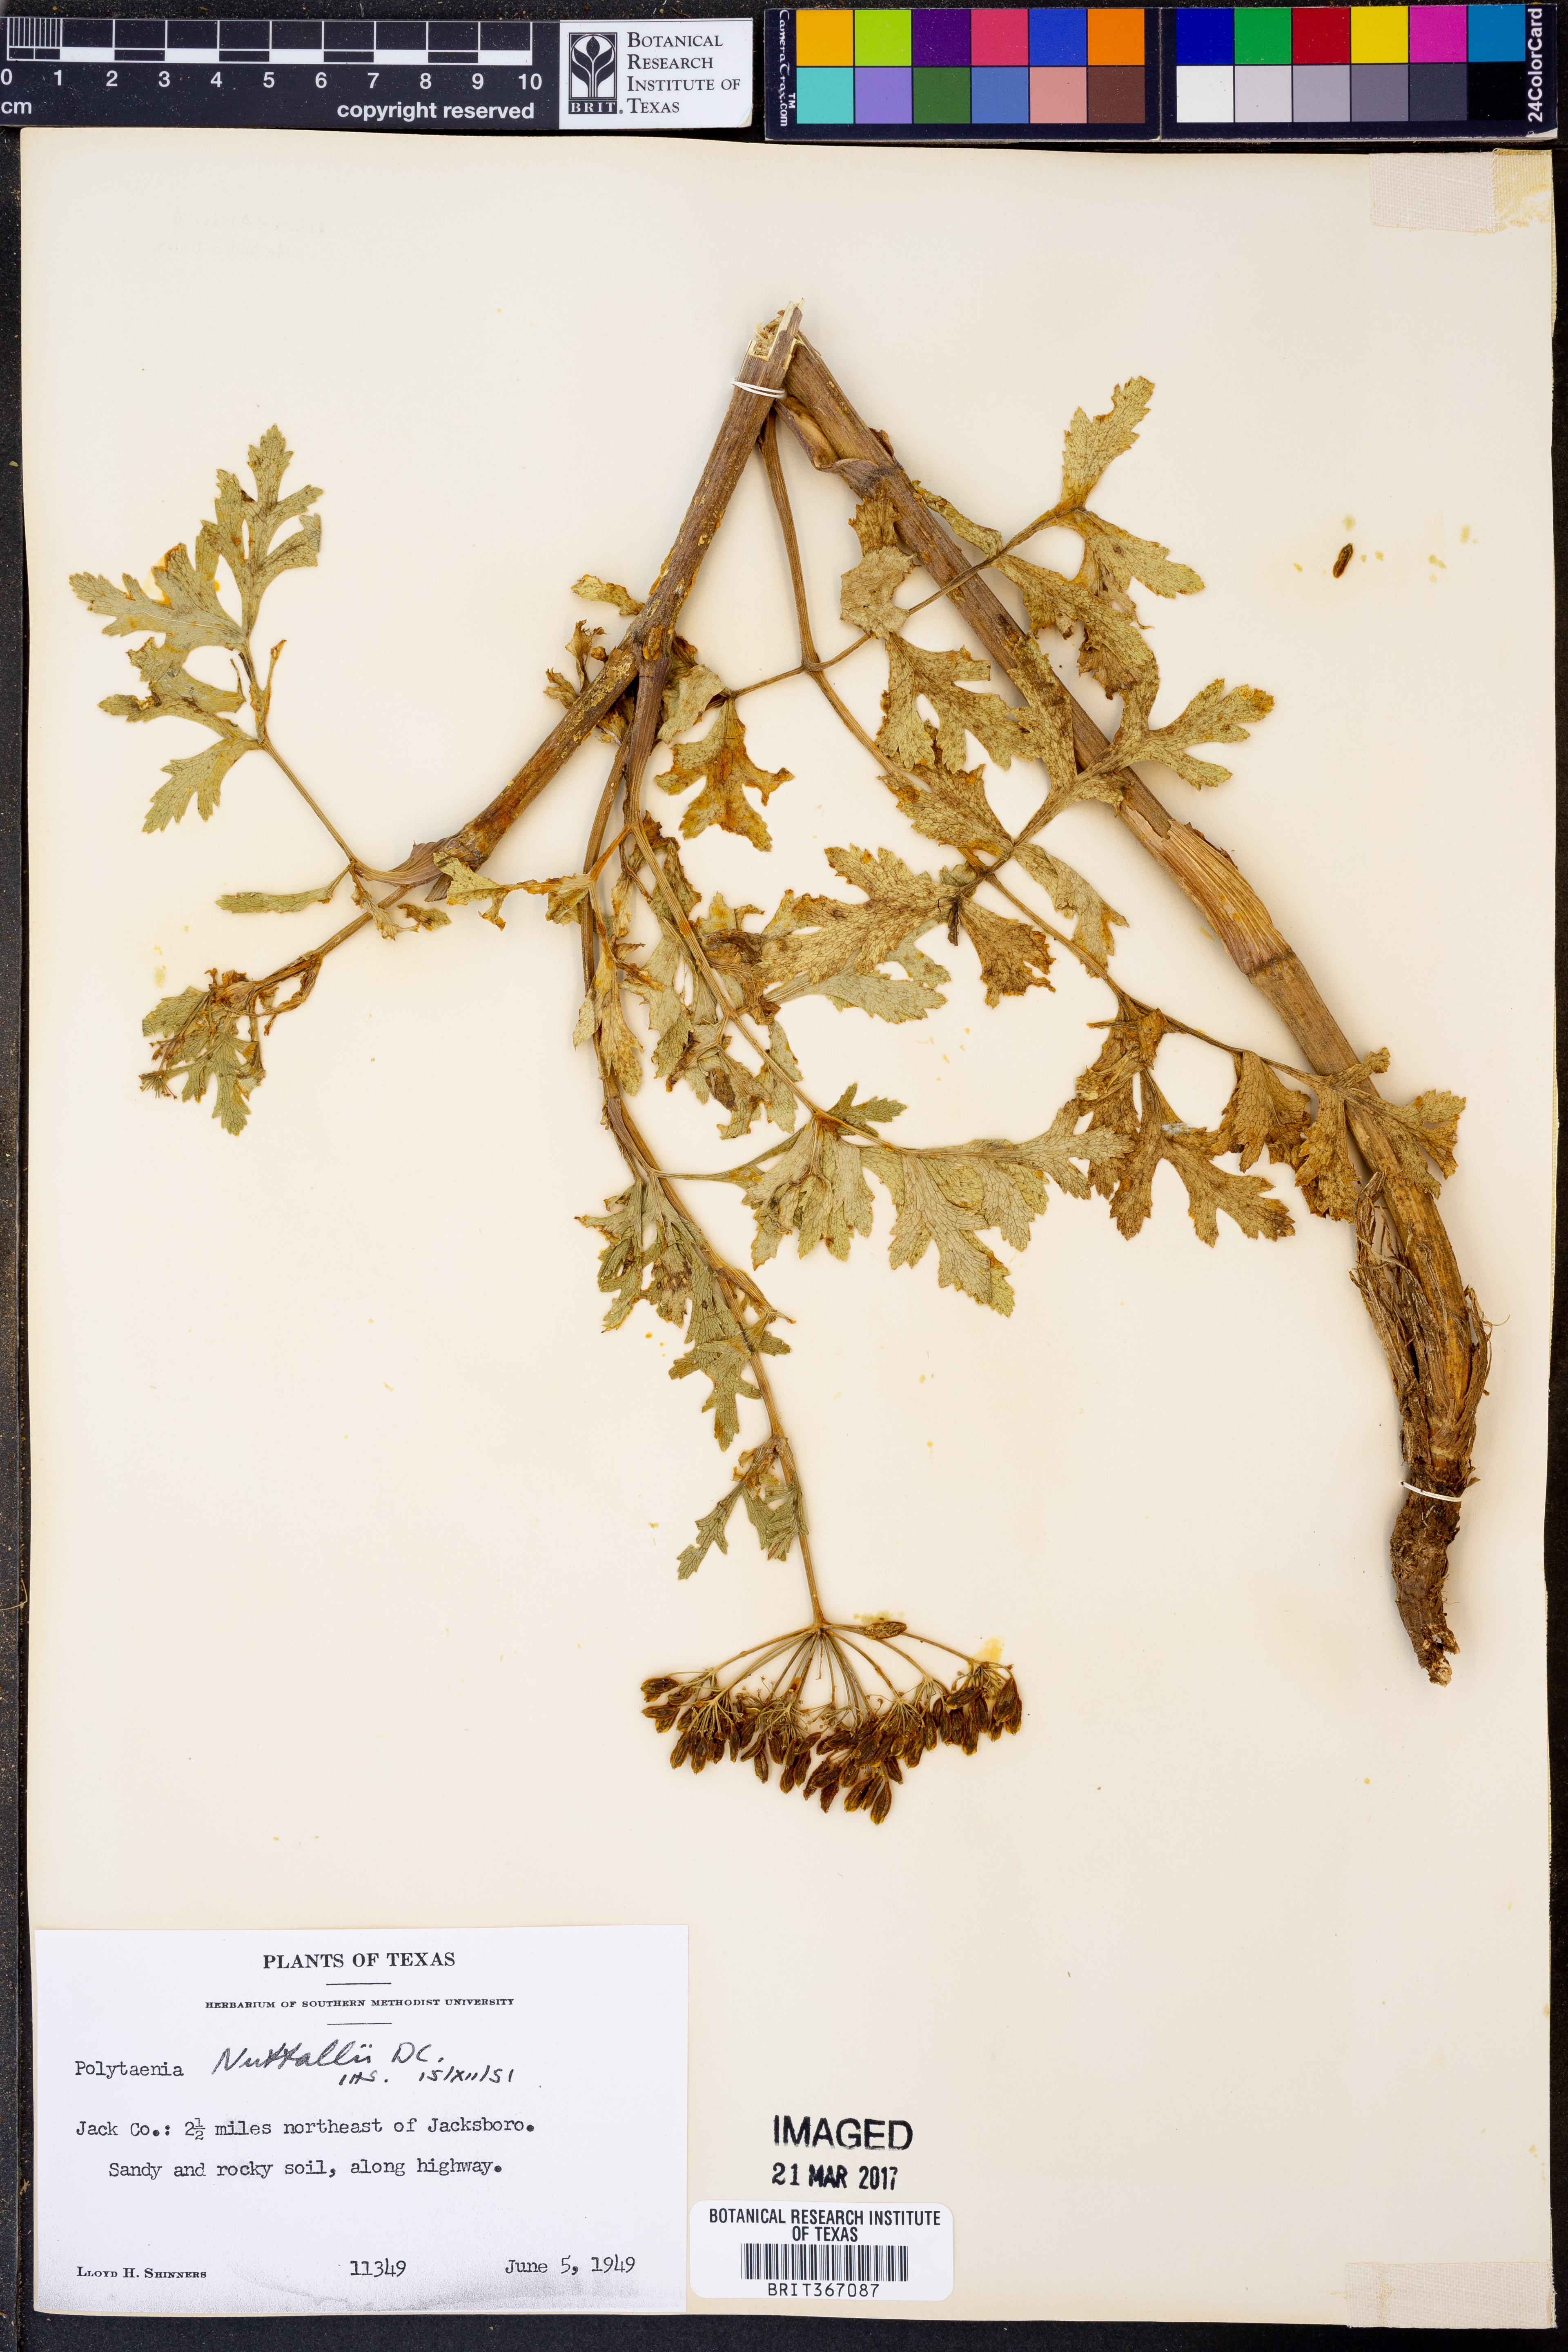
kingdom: Plantae
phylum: Tracheophyta
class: Magnoliopsida
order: Apiales
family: Apiaceae
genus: Polytaenia
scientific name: Polytaenia nuttallii
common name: Prairie-parsley
